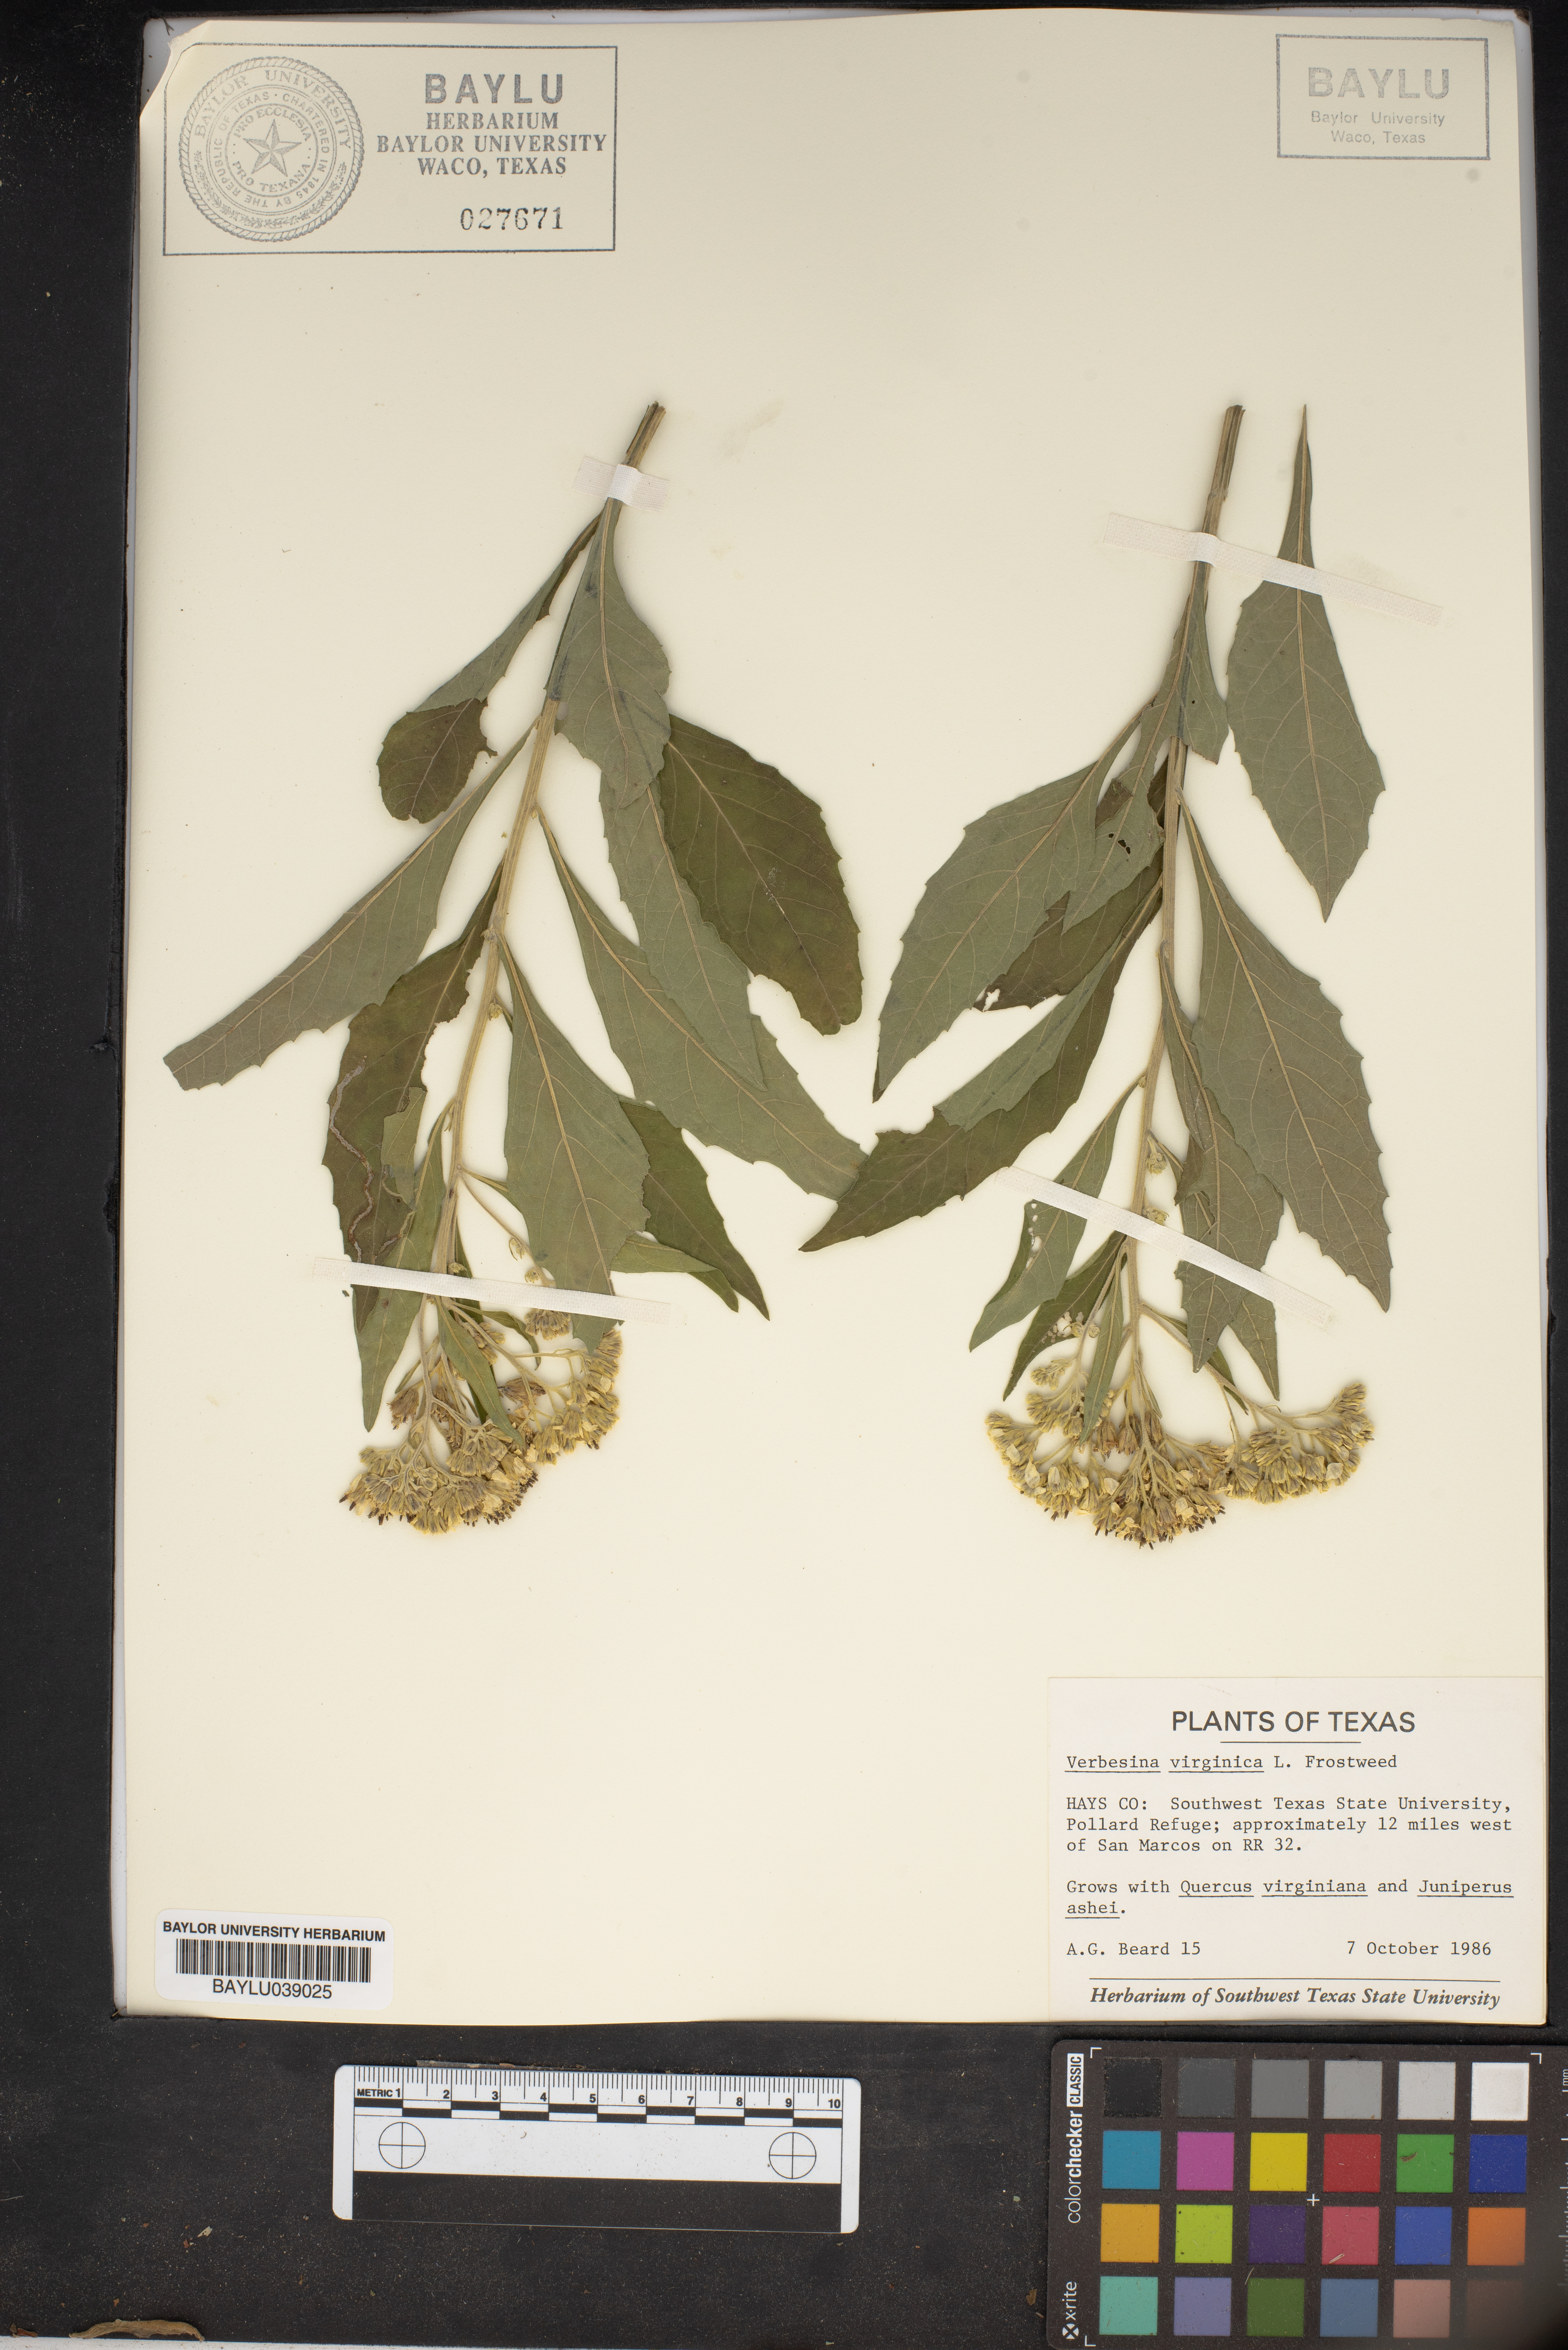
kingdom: Plantae
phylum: Tracheophyta
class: Magnoliopsida
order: Lamiales
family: Scrophulariaceae
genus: Verbascum
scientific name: Verbascum virgatum
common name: Twiggy mullein
